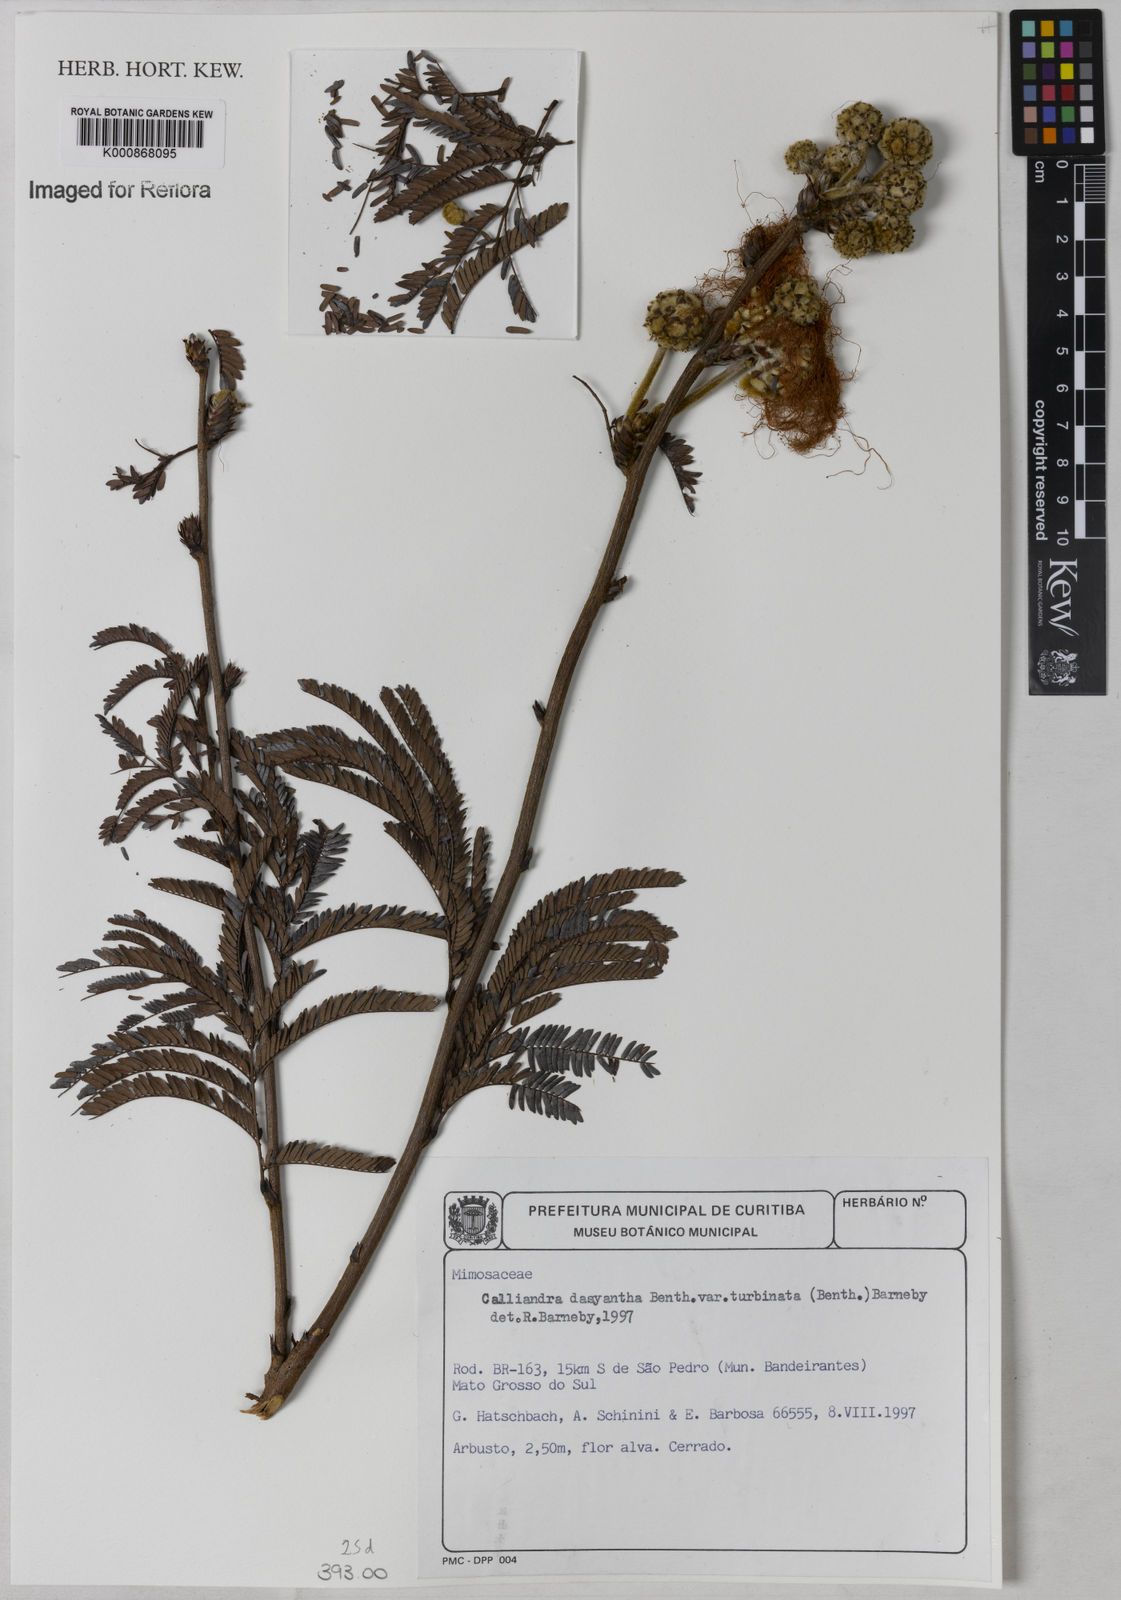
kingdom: Plantae
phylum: Tracheophyta
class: Magnoliopsida
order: Fabales
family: Fabaceae
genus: Calliandra
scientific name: Calliandra dysantha
